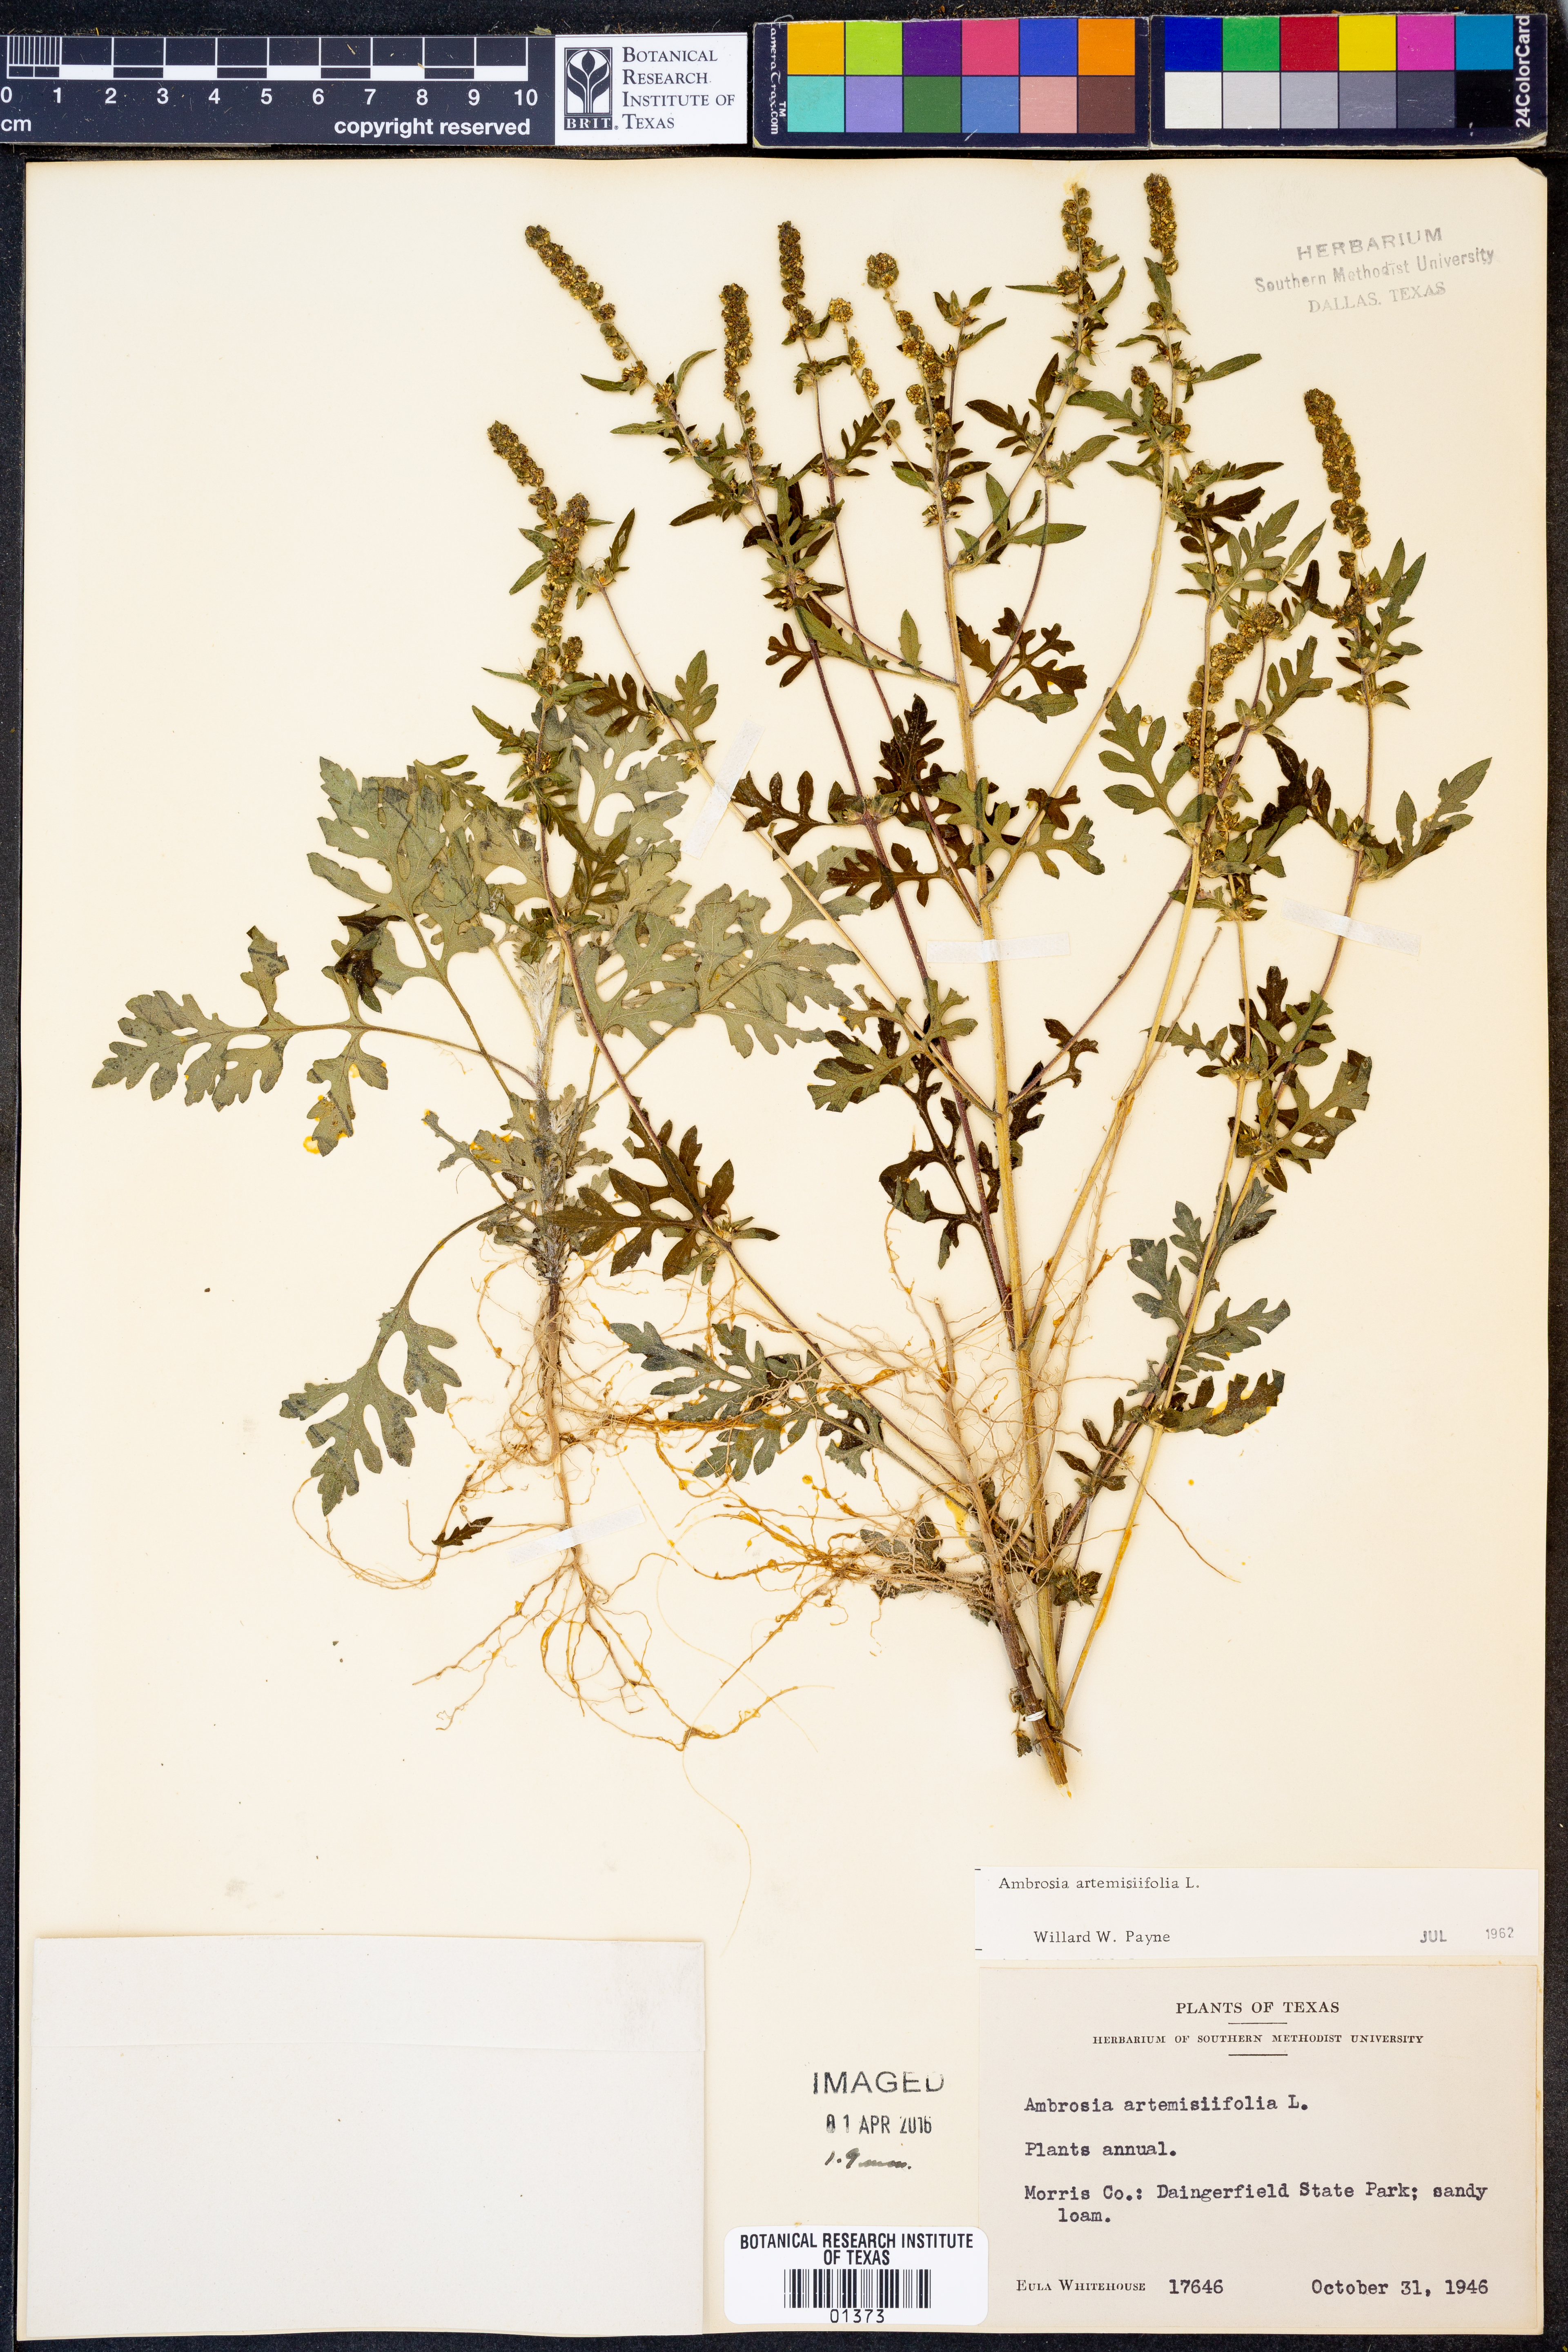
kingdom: Plantae
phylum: Tracheophyta
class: Magnoliopsida
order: Asterales
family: Asteraceae
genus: Ambrosia
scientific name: Ambrosia artemisiifolia
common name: Annual ragweed
